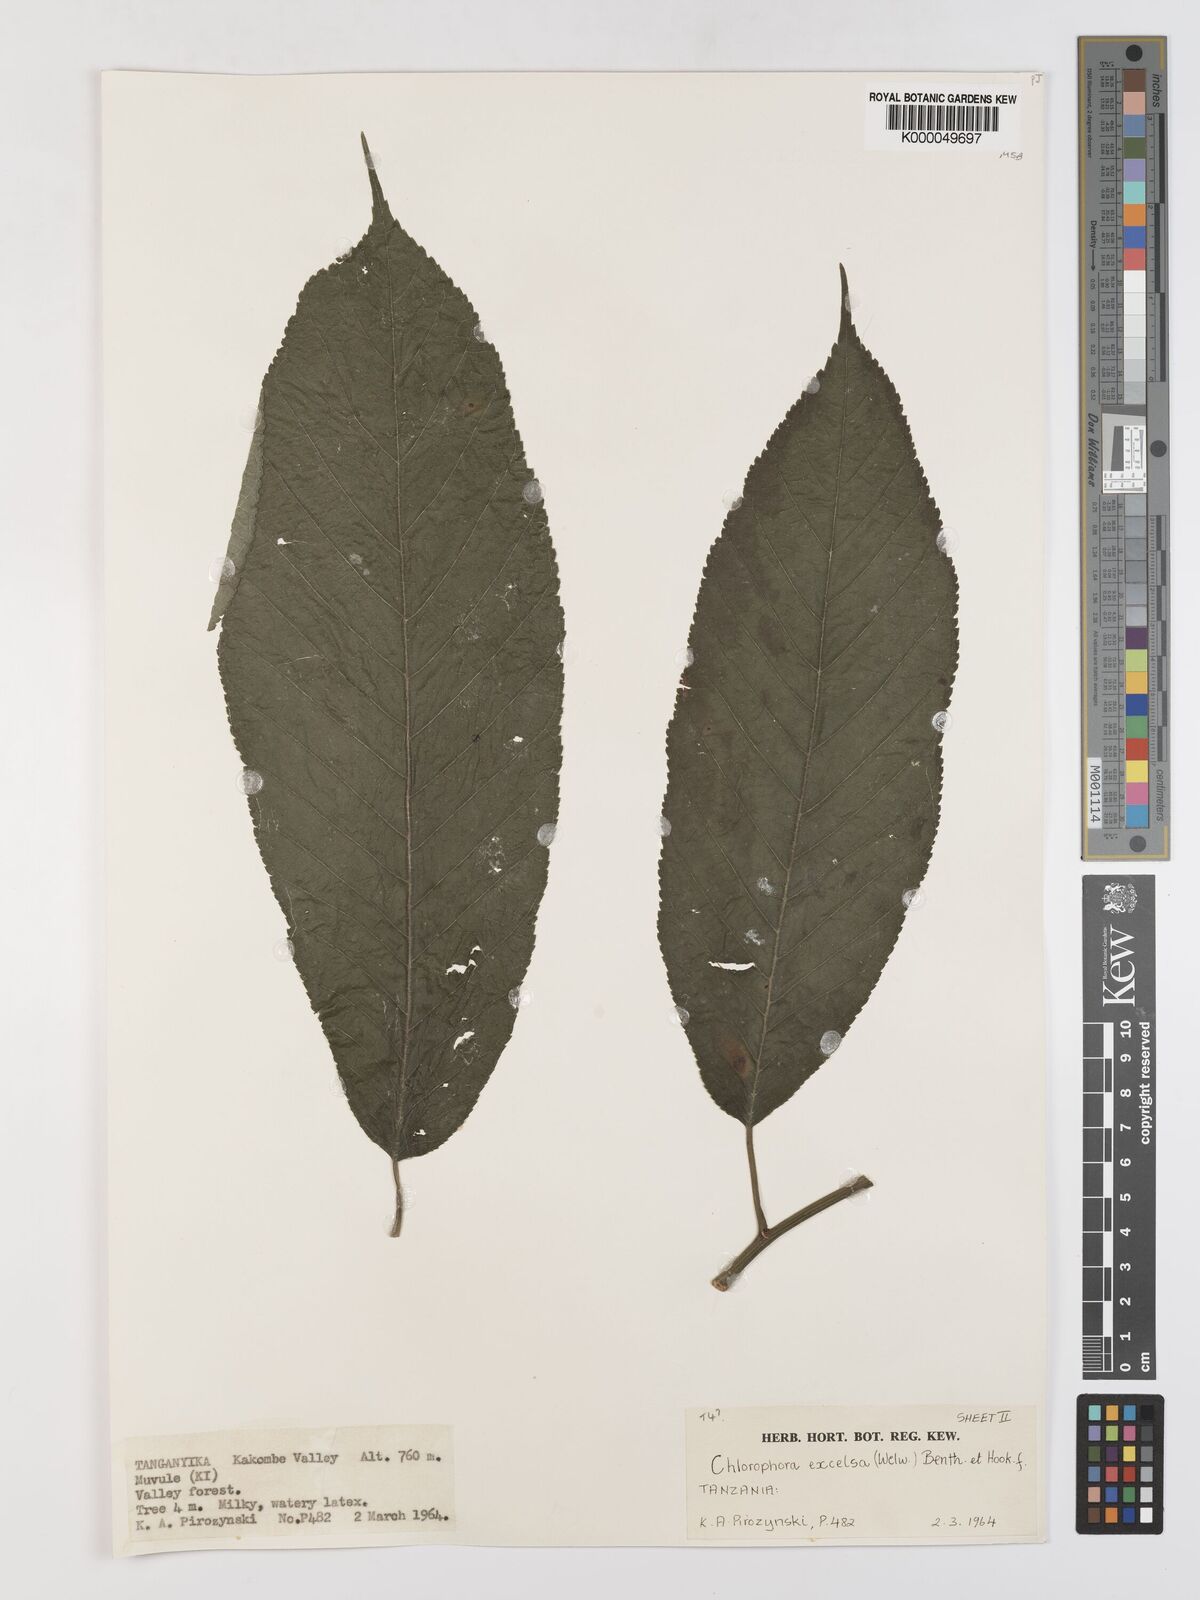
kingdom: Plantae
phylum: Tracheophyta
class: Magnoliopsida
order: Rosales
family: Moraceae
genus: Milicia
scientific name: Milicia excelsa
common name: African teak
